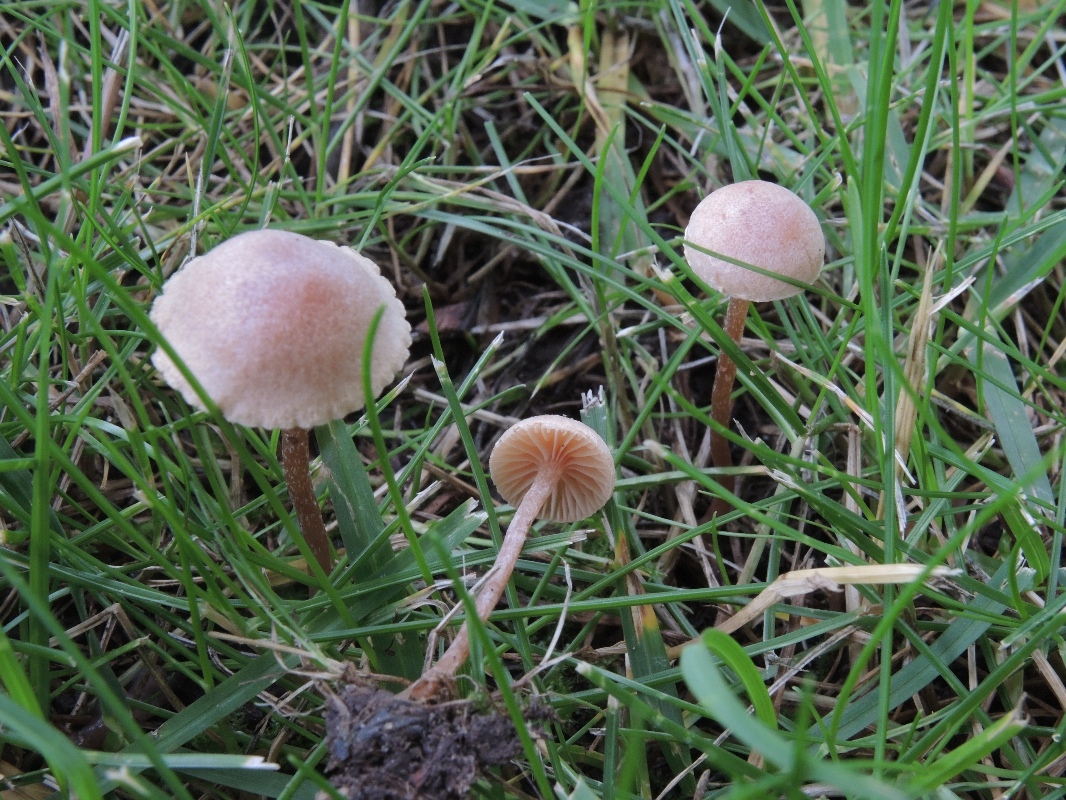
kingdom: Fungi
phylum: Basidiomycota
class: Agaricomycetes
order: Agaricales
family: Tubariaceae
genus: Tubaria
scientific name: Tubaria conspersa
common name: bleg fnughat
